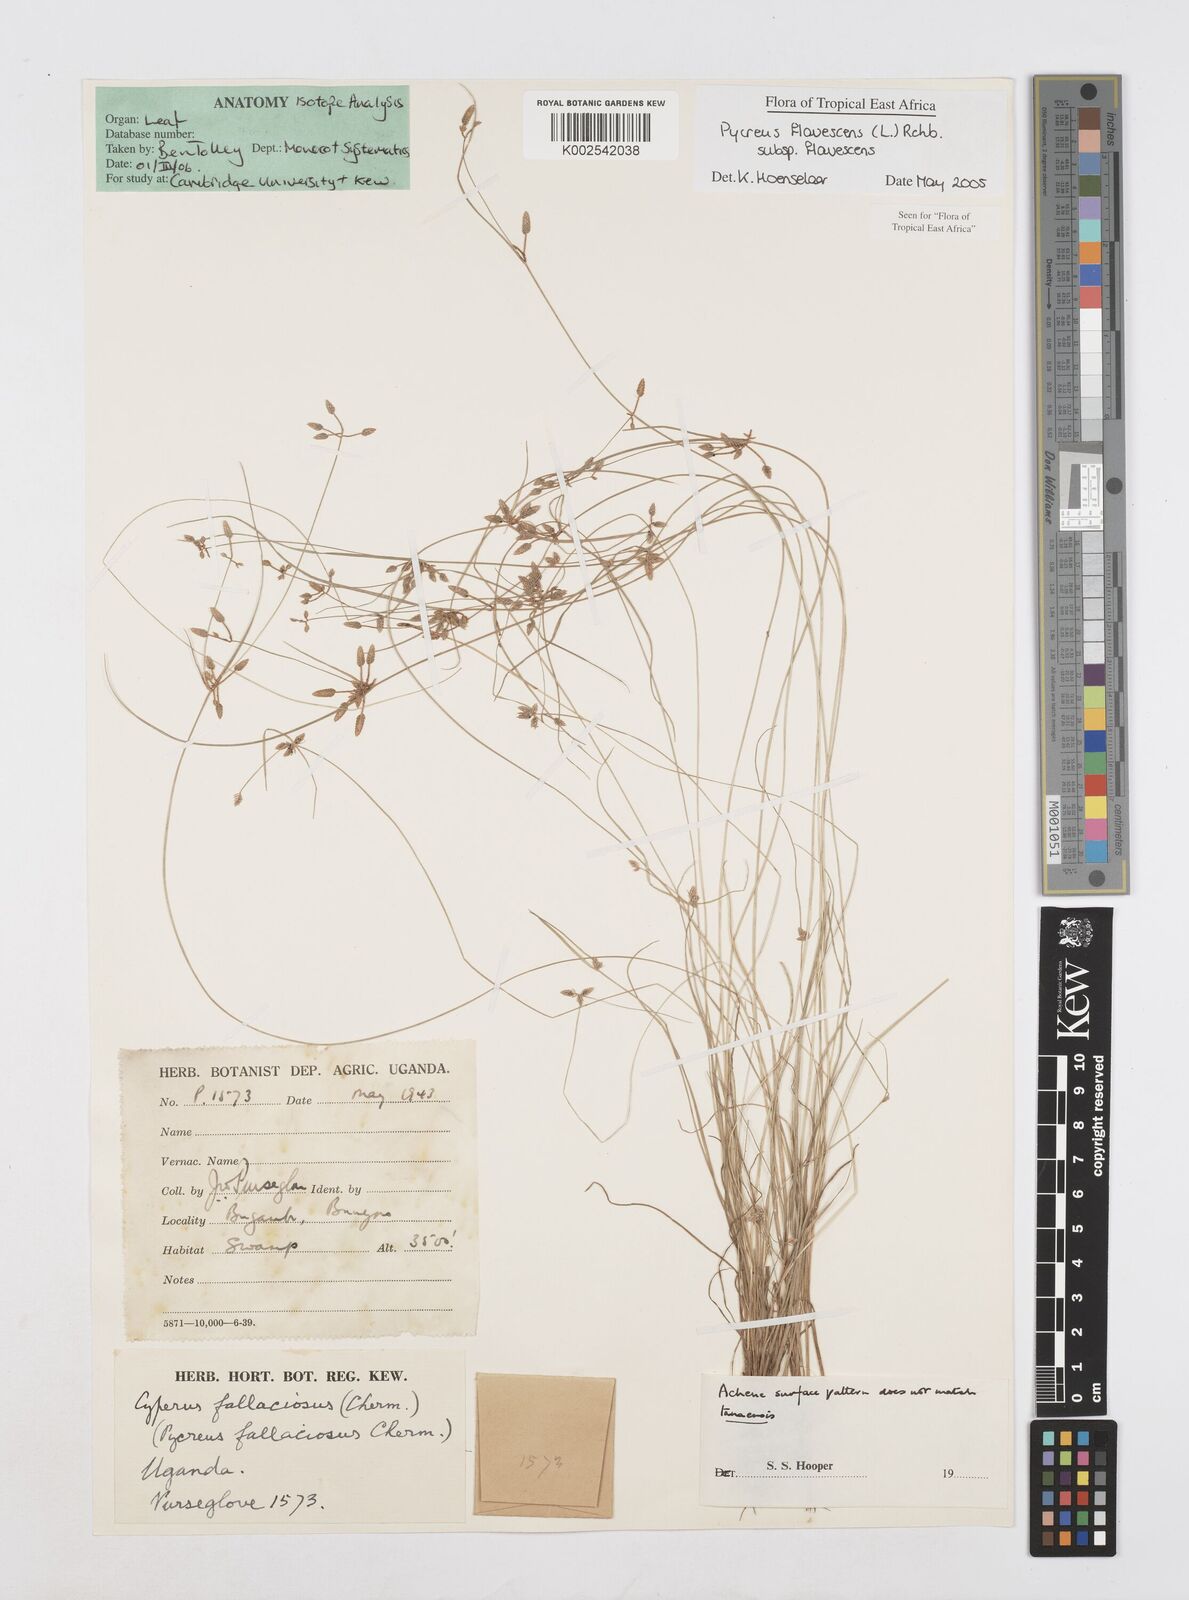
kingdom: Plantae
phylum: Tracheophyta
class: Liliopsida
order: Poales
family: Cyperaceae
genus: Cyperus
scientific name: Cyperus flavescens
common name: Yellow galingale
